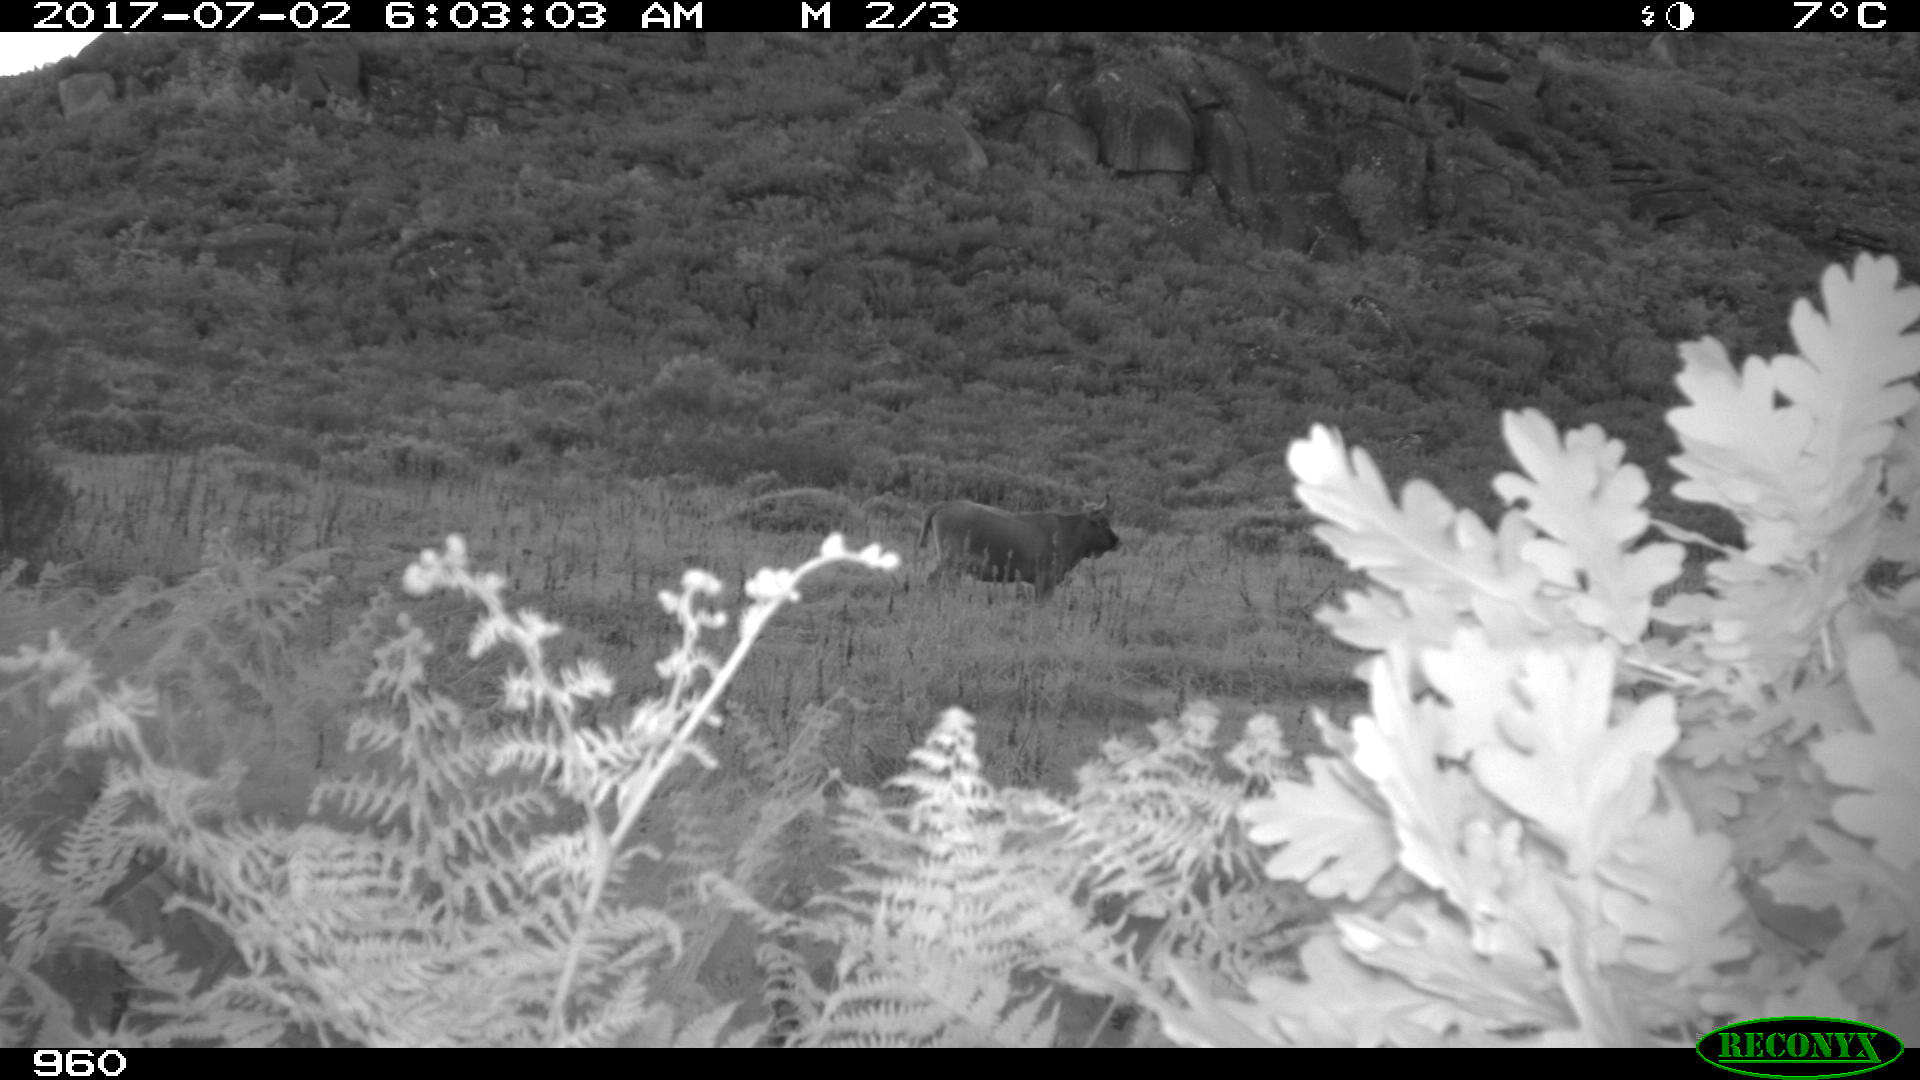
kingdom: Animalia
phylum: Chordata
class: Mammalia
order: Artiodactyla
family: Bovidae
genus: Bos
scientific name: Bos taurus
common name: Domesticated cattle
